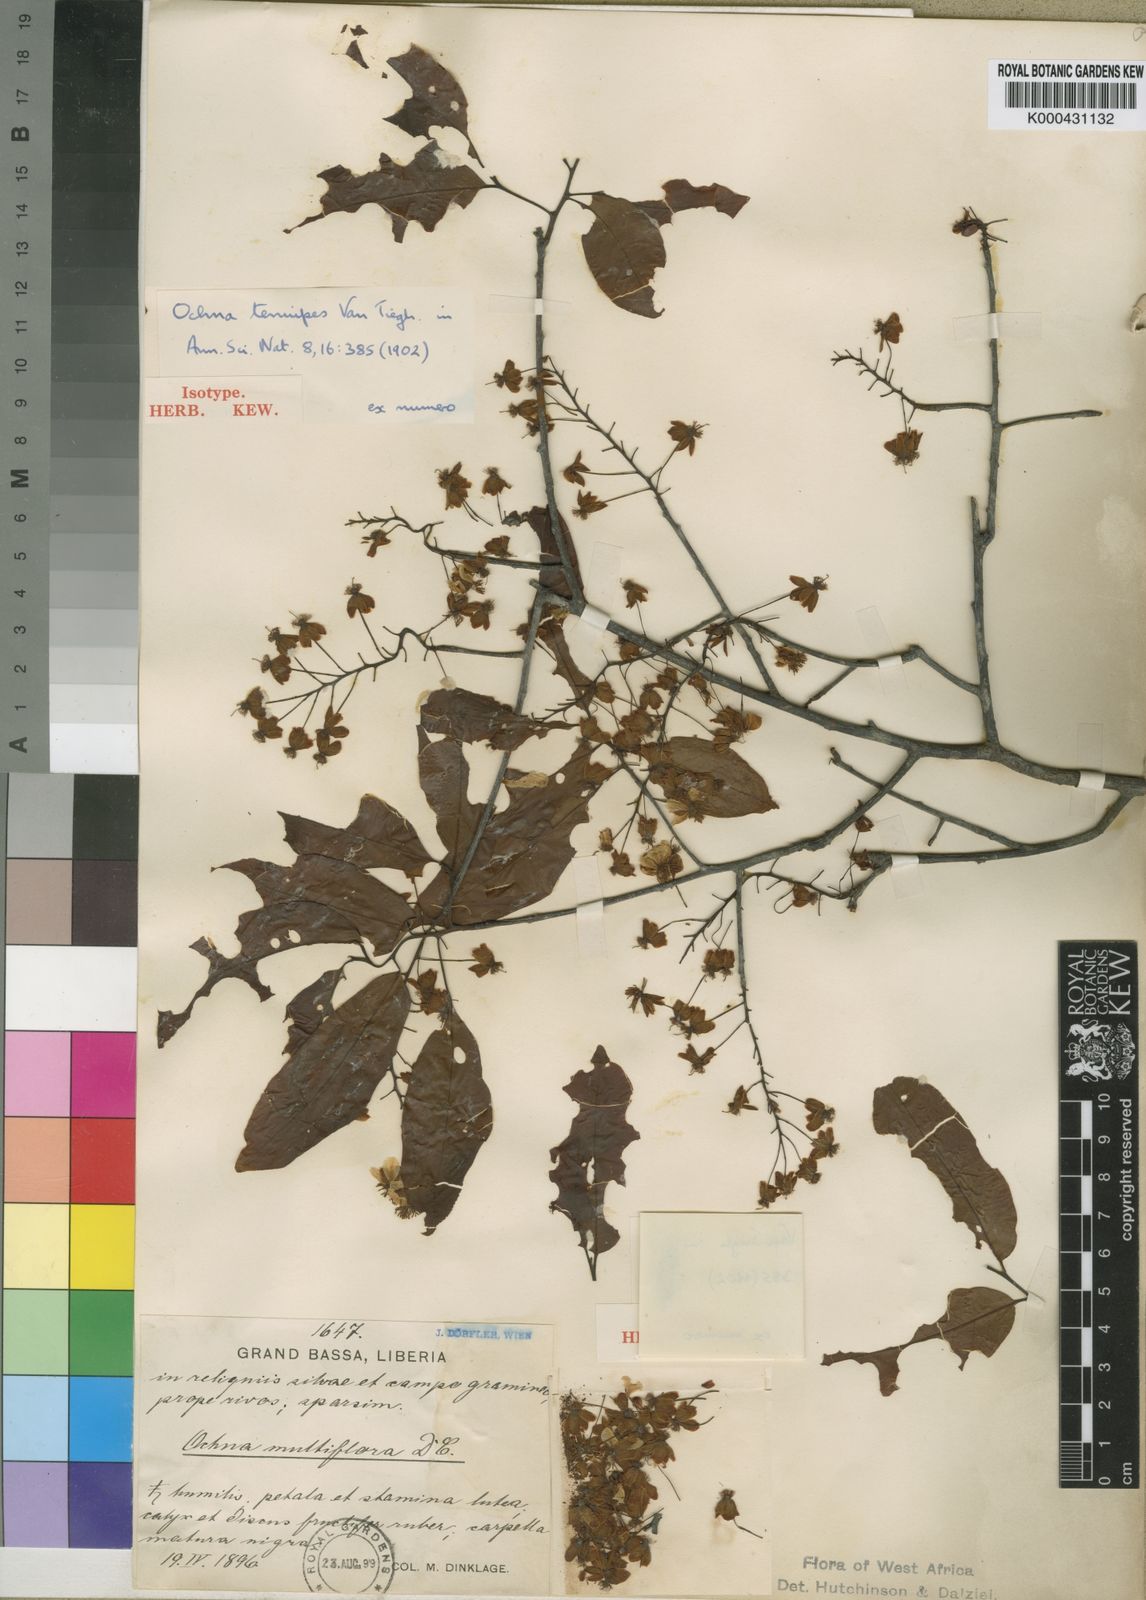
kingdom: Plantae
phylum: Tracheophyta
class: Magnoliopsida
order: Malpighiales
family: Ochnaceae
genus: Ochna
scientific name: Ochna multiflora
